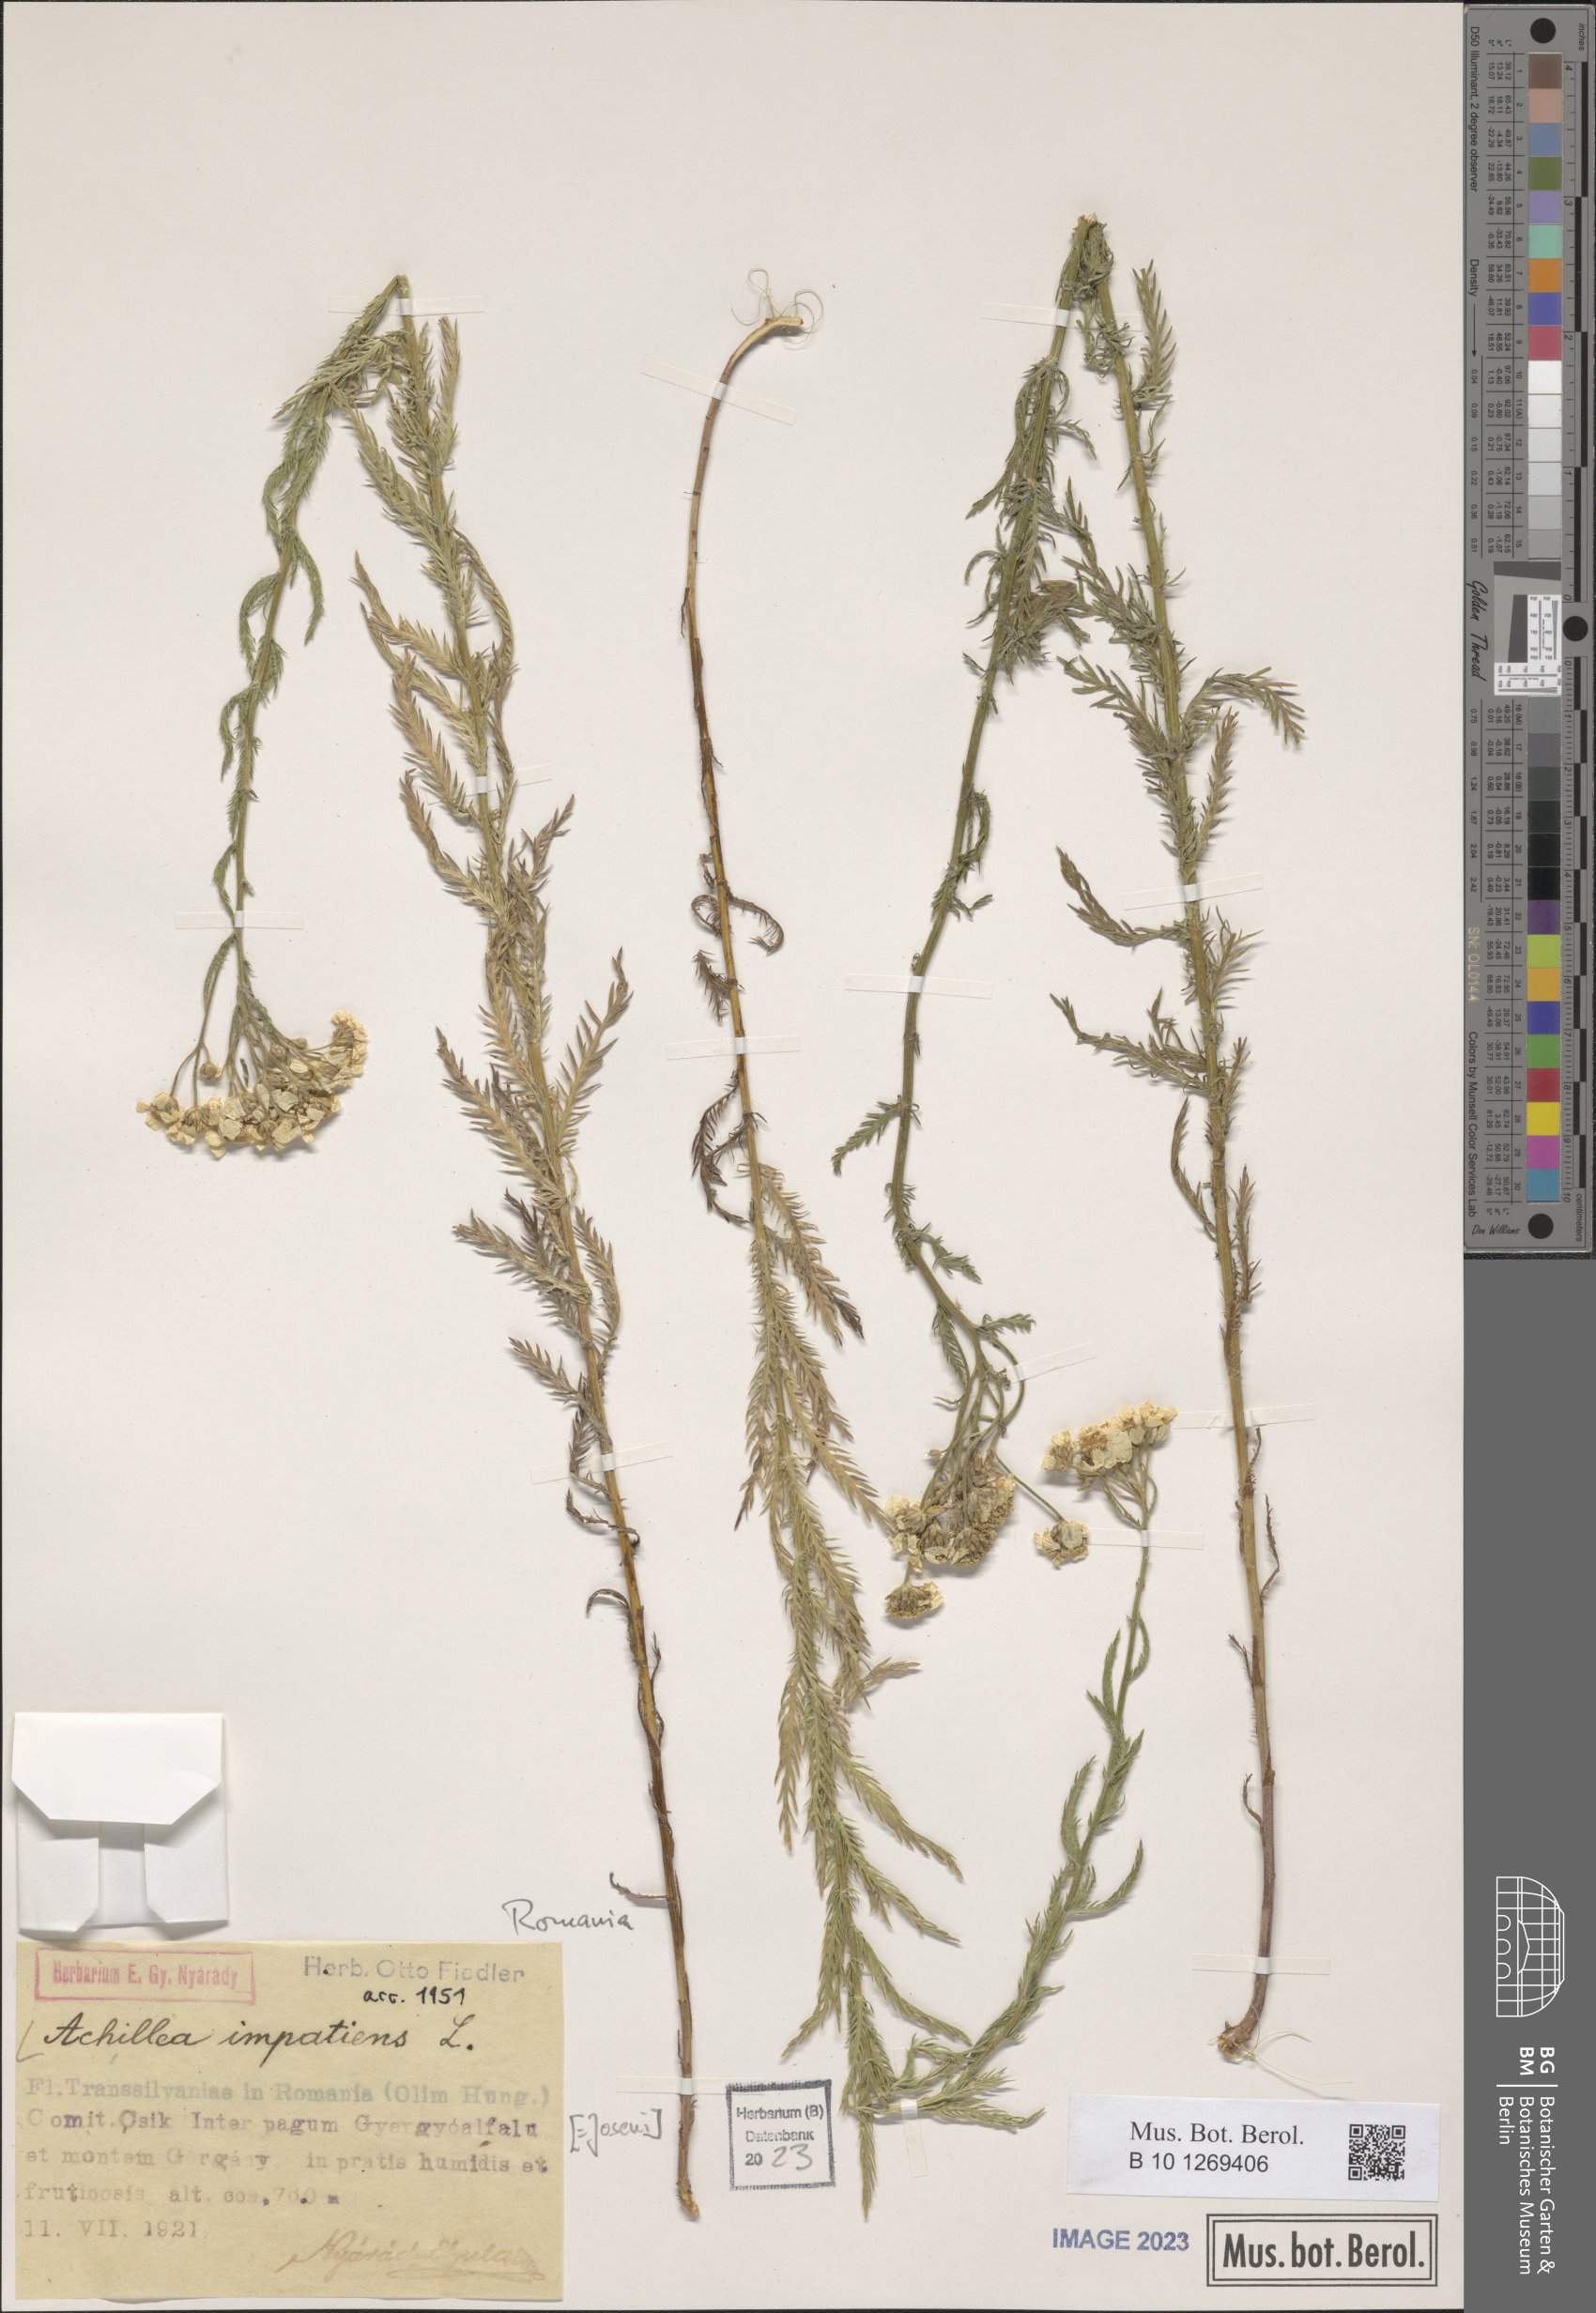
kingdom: Plantae
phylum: Tracheophyta
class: Magnoliopsida
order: Asterales
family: Asteraceae
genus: Achillea
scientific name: Achillea impatiens
